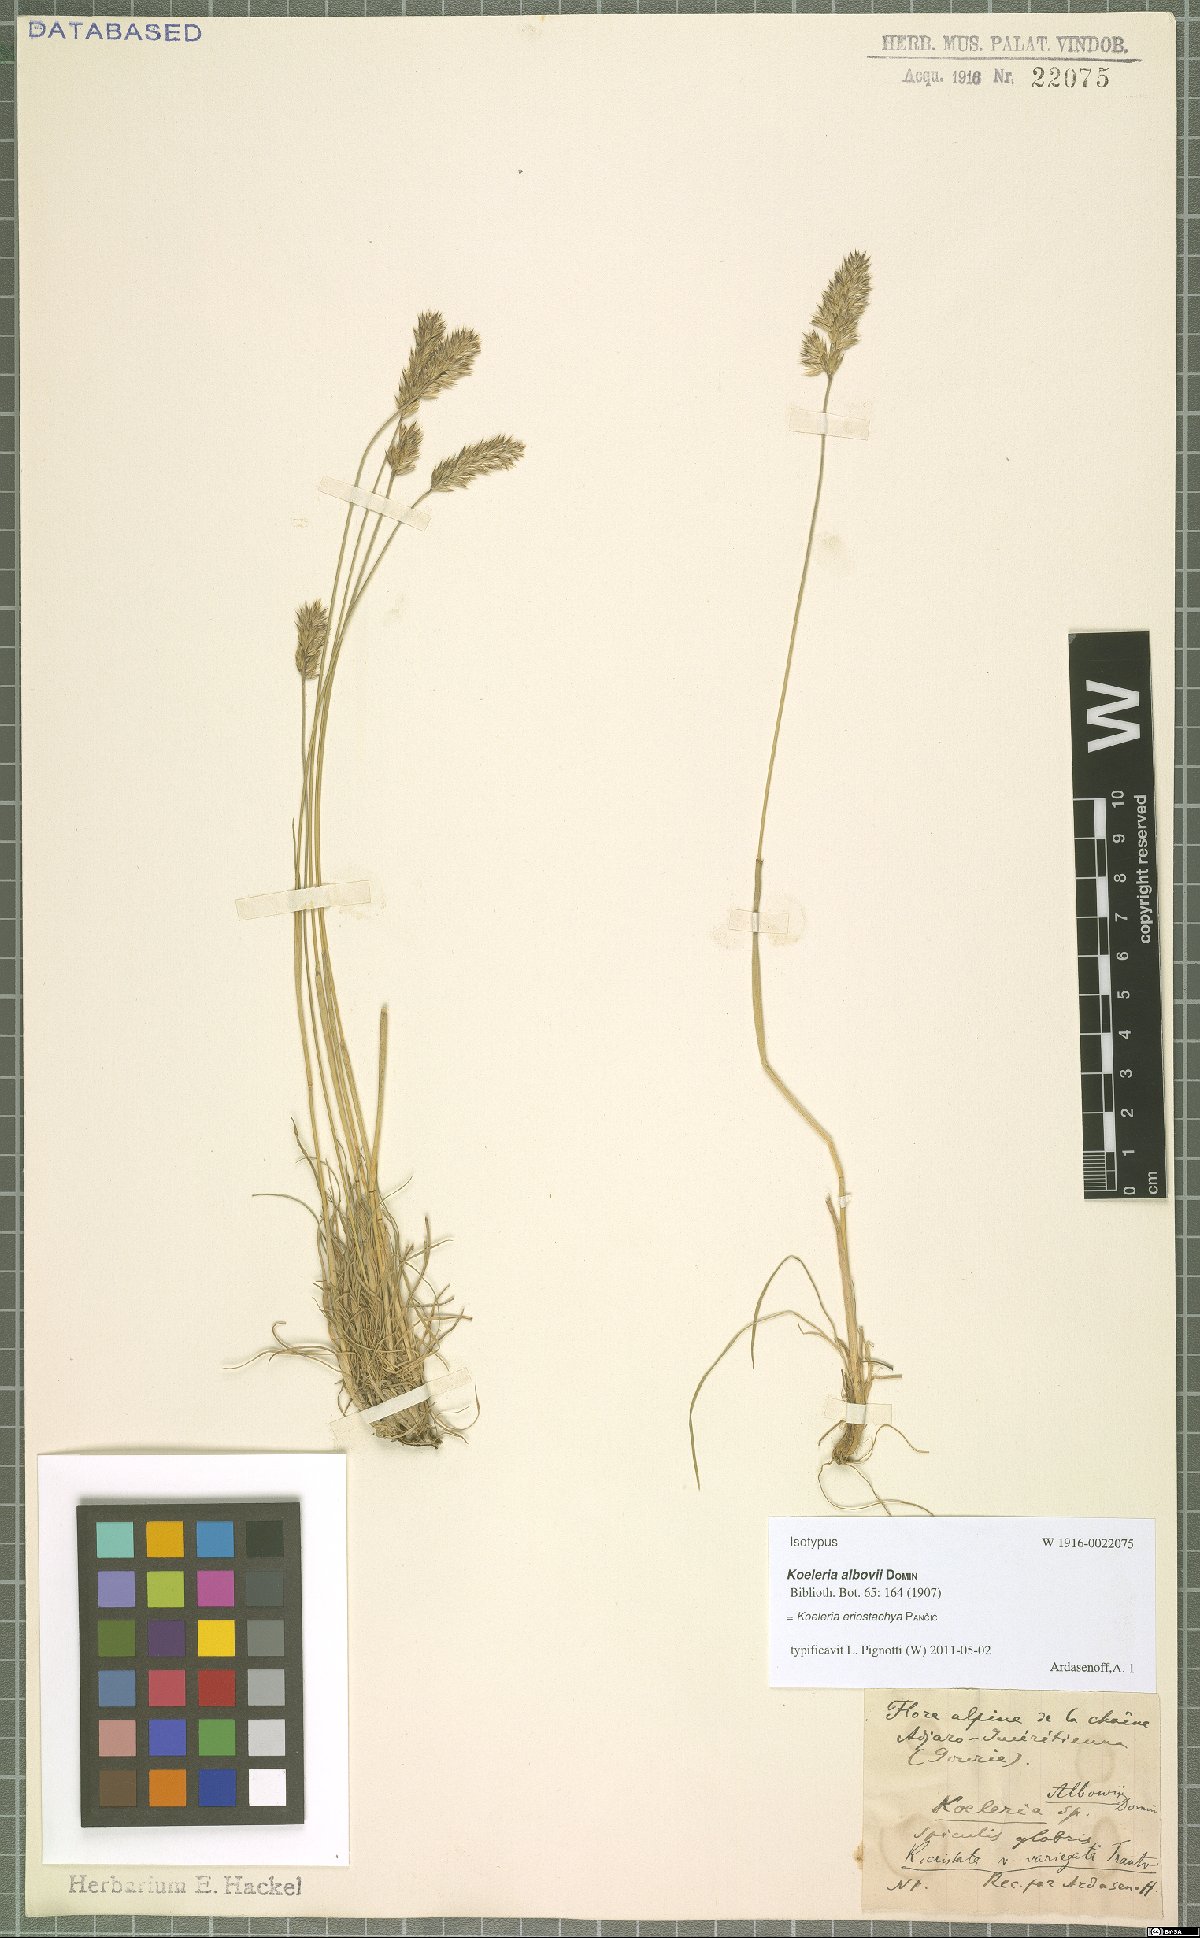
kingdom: Plantae
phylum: Tracheophyta
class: Liliopsida
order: Poales
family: Poaceae
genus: Koeleria
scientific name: Koeleria eriostachya
